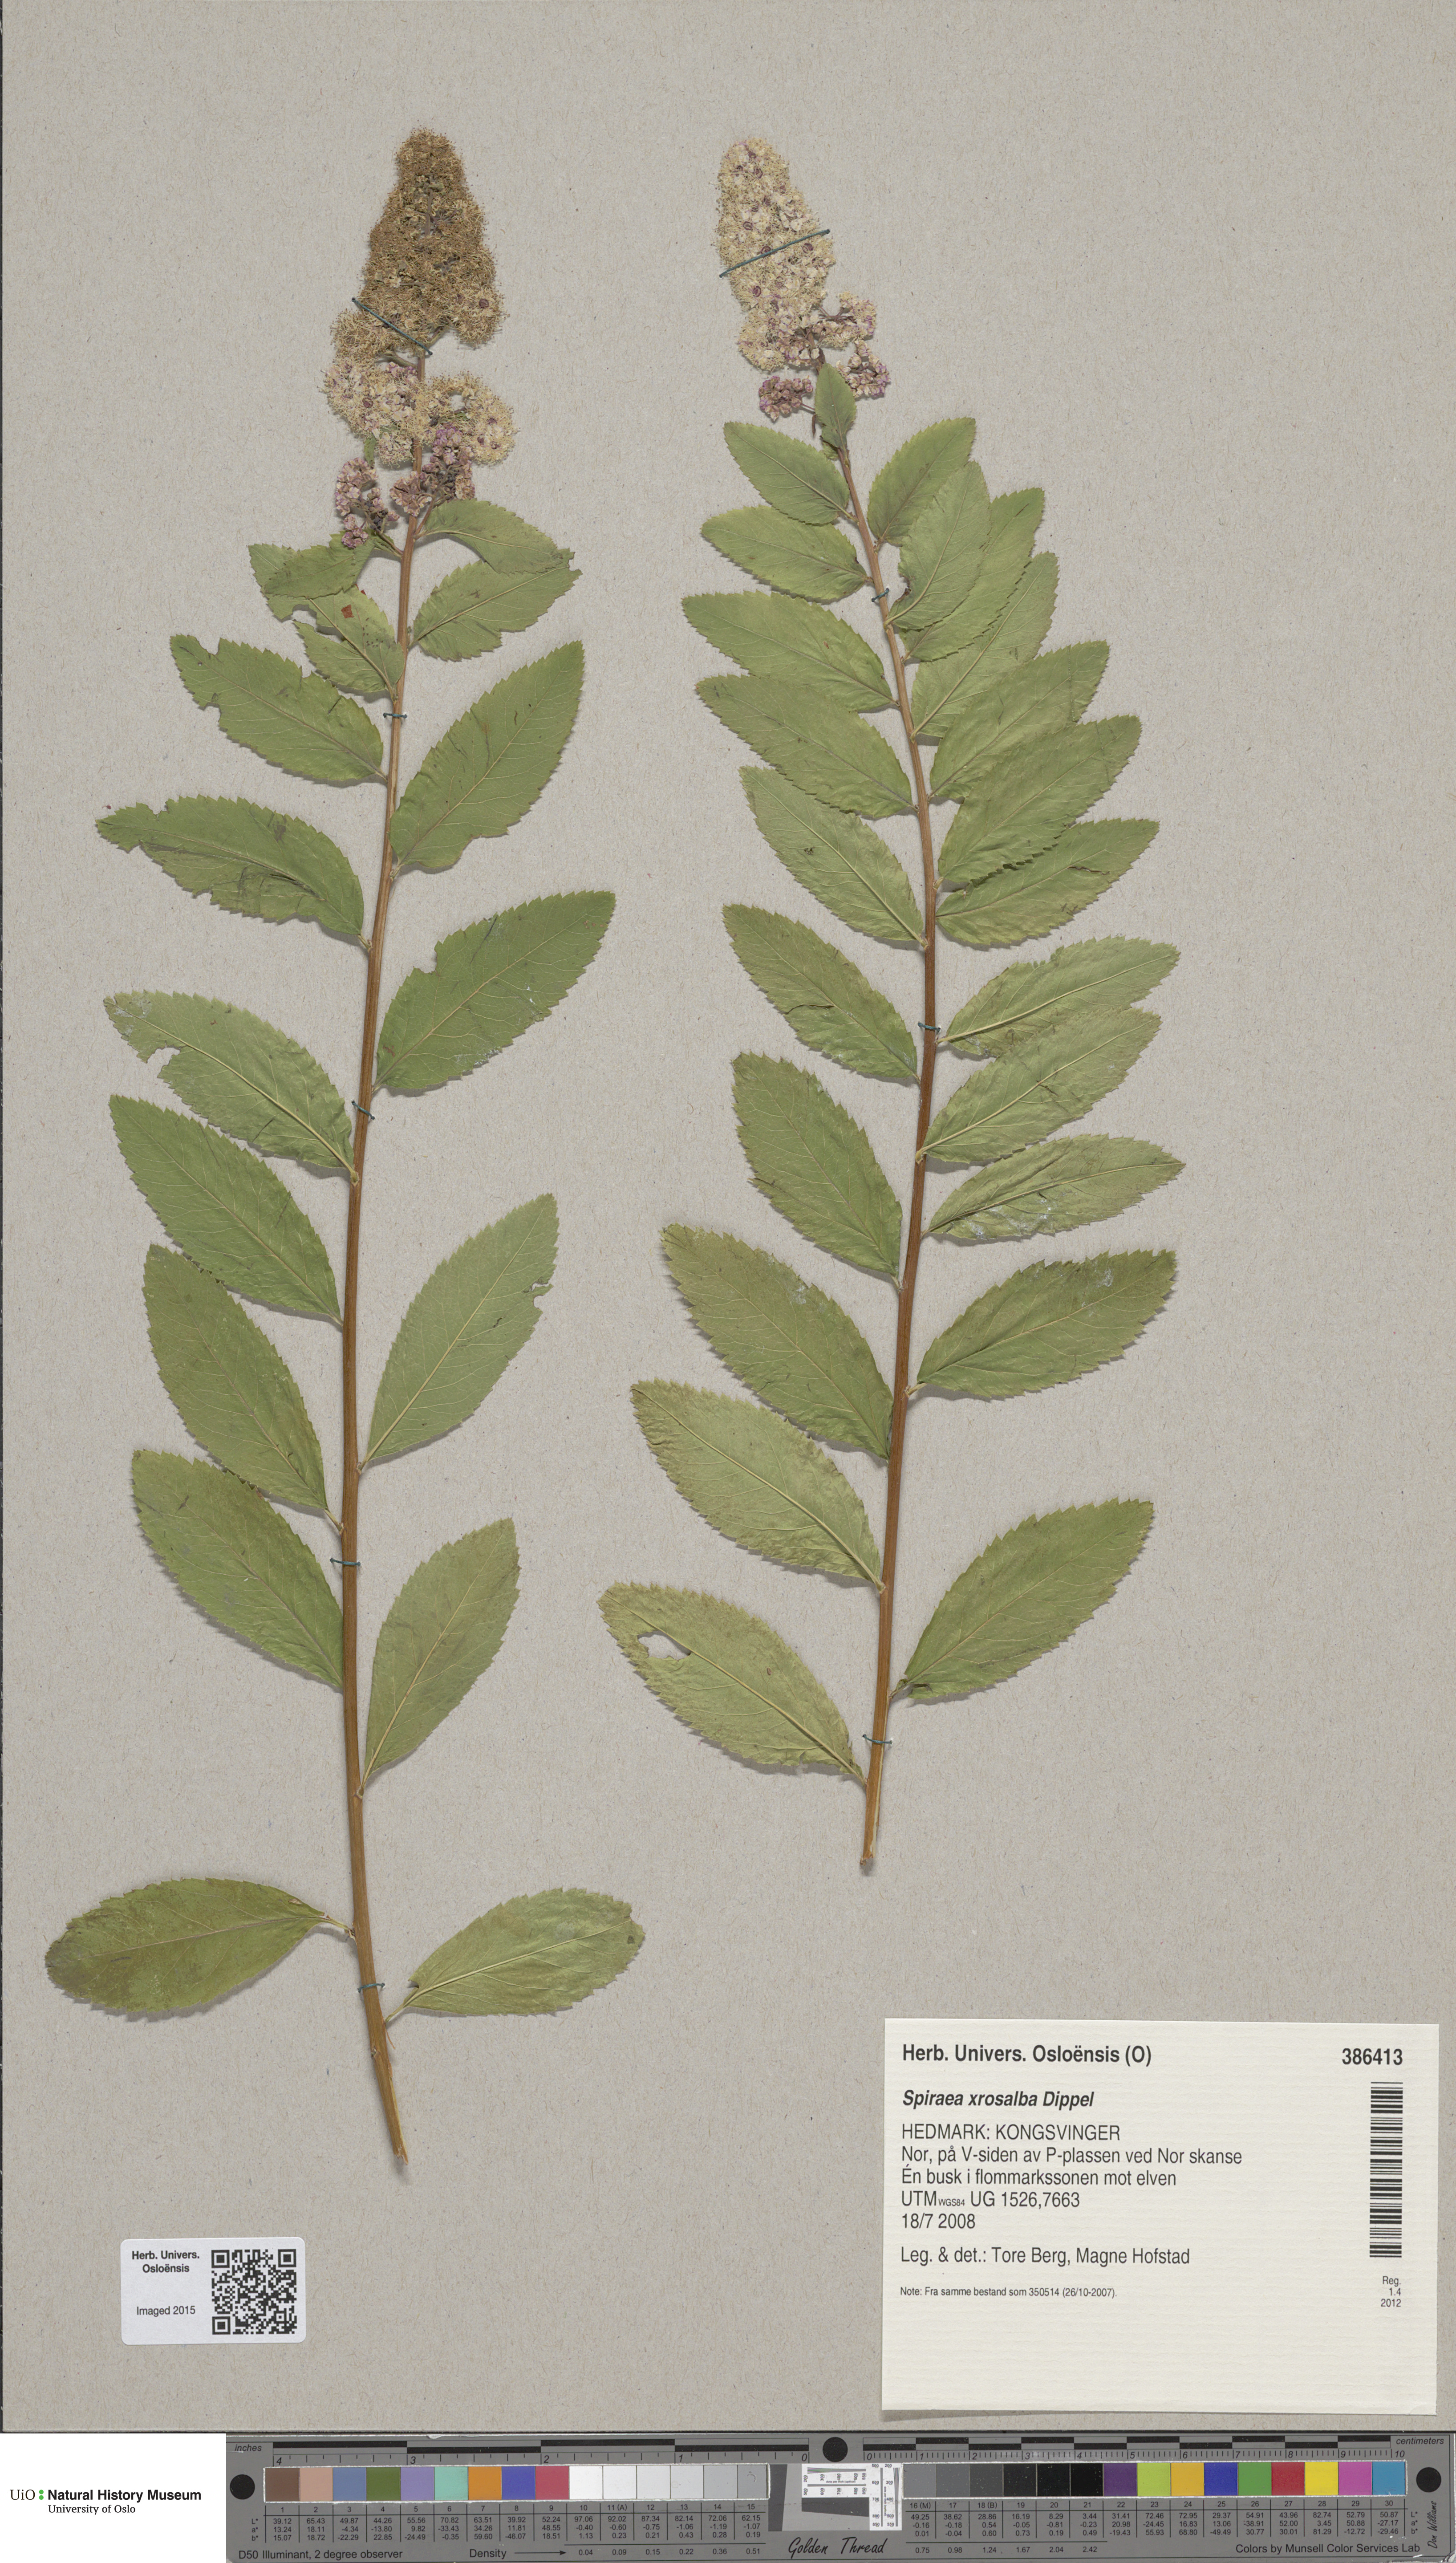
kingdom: Plantae
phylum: Tracheophyta
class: Magnoliopsida
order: Rosales
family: Rosaceae
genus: Spiraea
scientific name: Spiraea rosalba
